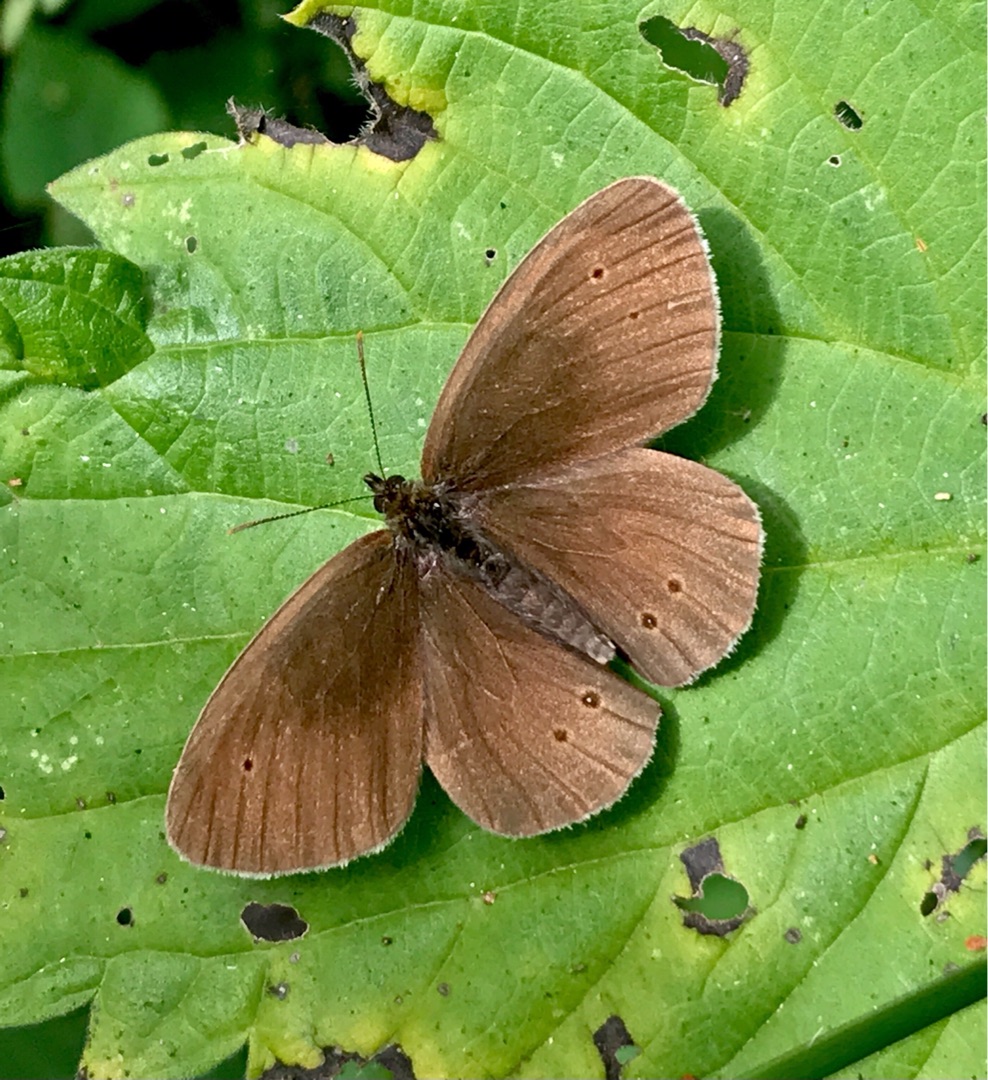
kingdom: Animalia
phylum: Arthropoda
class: Insecta
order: Lepidoptera
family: Nymphalidae
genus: Aphantopus
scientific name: Aphantopus hyperantus
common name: Engrandøje
